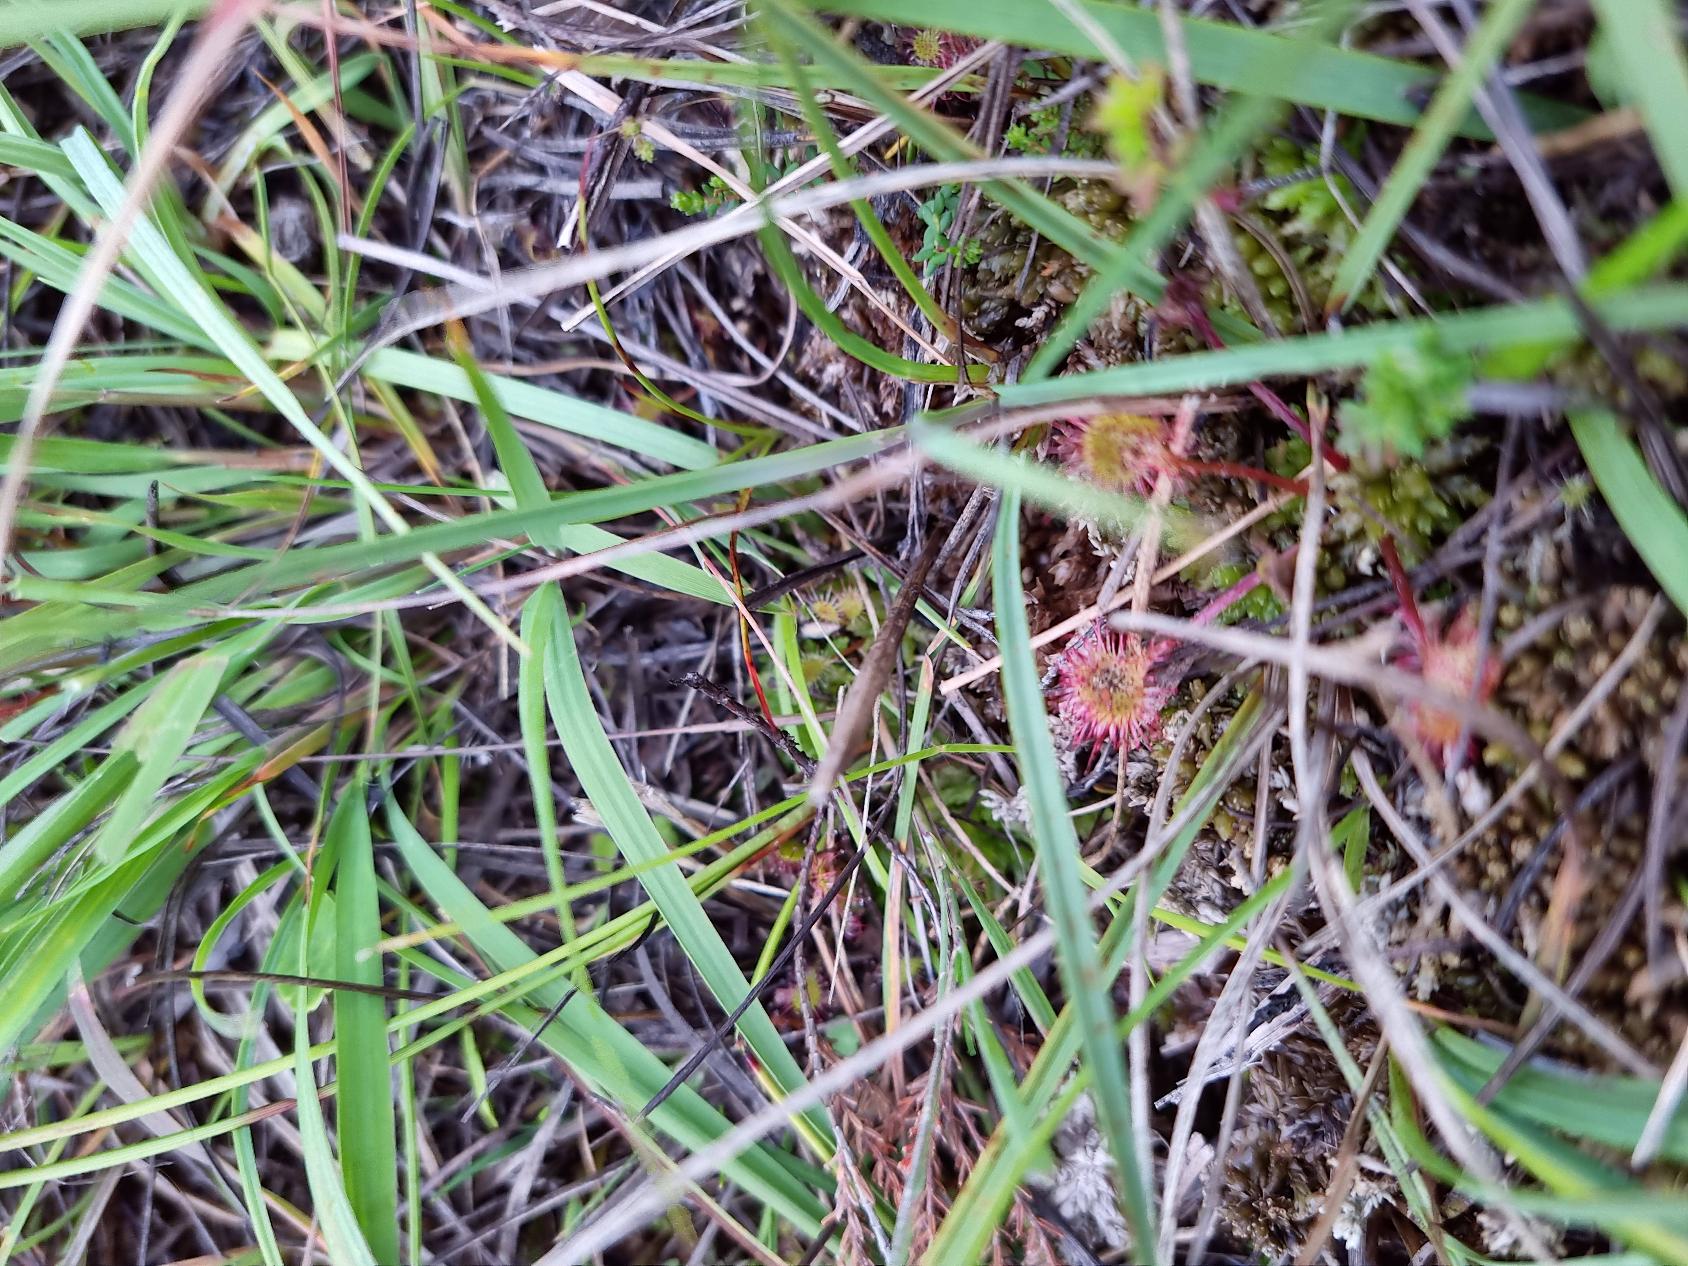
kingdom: Plantae
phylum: Tracheophyta
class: Magnoliopsida
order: Caryophyllales
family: Droseraceae
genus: Drosera
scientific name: Drosera rotundifolia
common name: Rundbladet soldug
